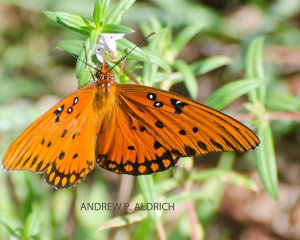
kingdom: Animalia
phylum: Arthropoda
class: Insecta
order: Lepidoptera
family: Nymphalidae
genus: Dione
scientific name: Dione vanillae
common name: Gulf Fritillary
